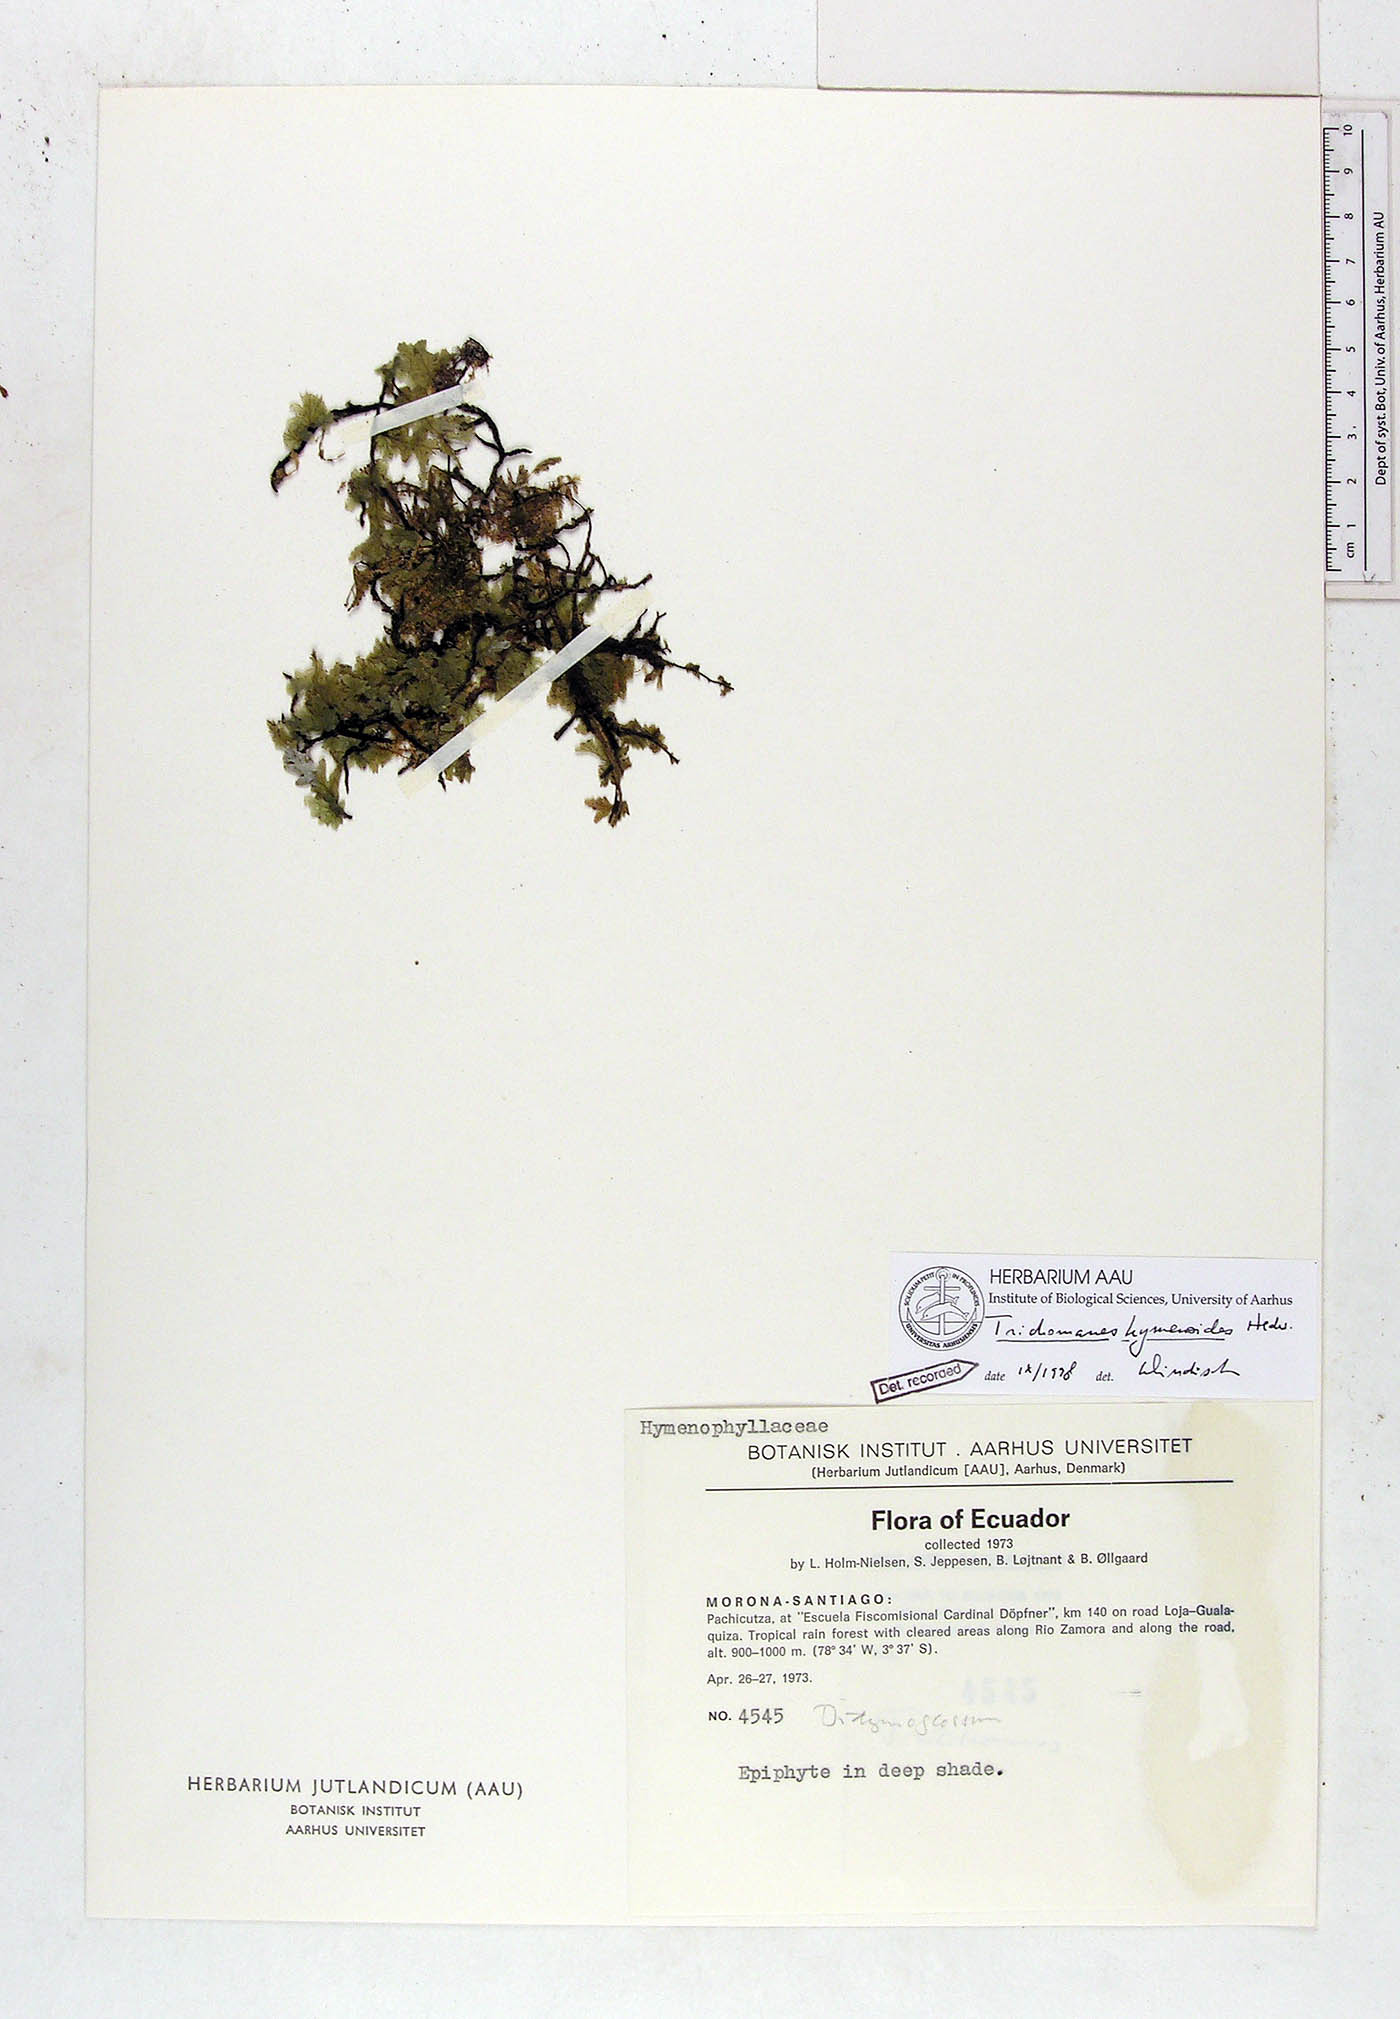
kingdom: Plantae
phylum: Tracheophyta
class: Polypodiopsida
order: Hymenophyllales
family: Hymenophyllaceae
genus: Didymoglossum
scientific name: Didymoglossum hymenoides
